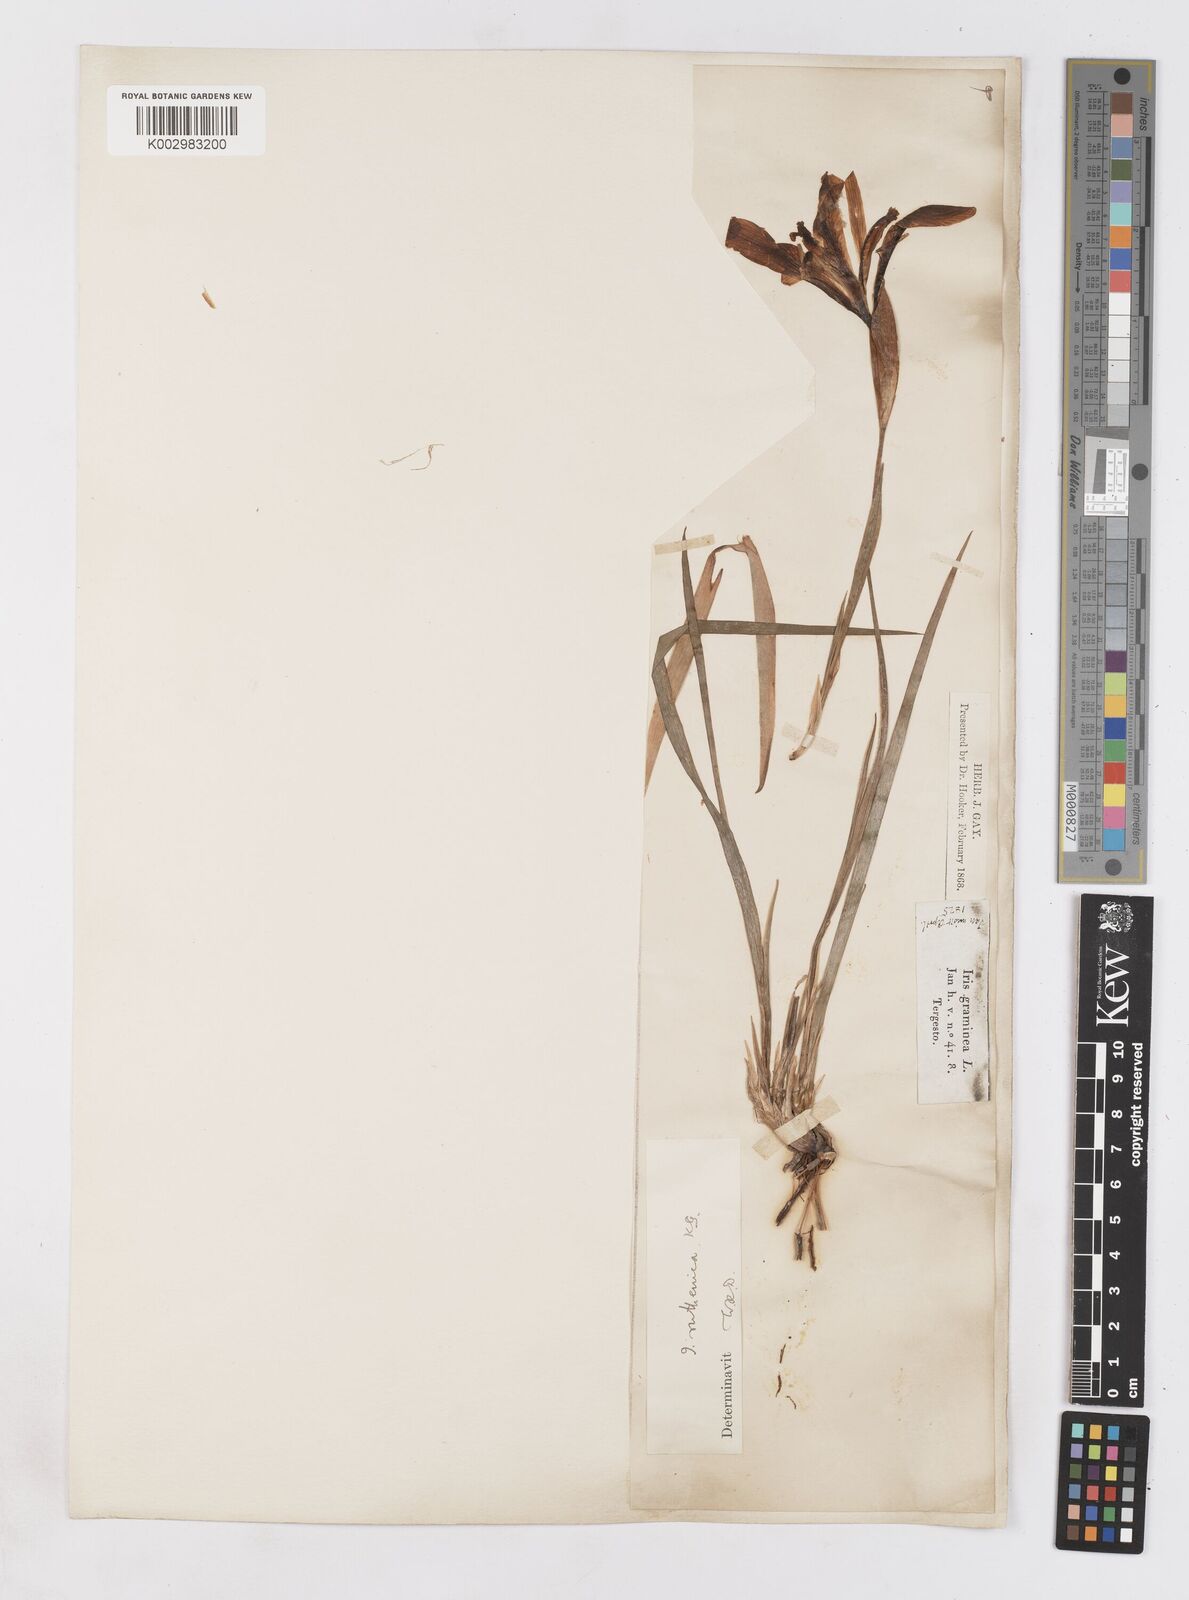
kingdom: Plantae
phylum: Tracheophyta
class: Liliopsida
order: Asparagales
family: Iridaceae
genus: Iris
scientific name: Iris ruthenica
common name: Purple-bract iris
